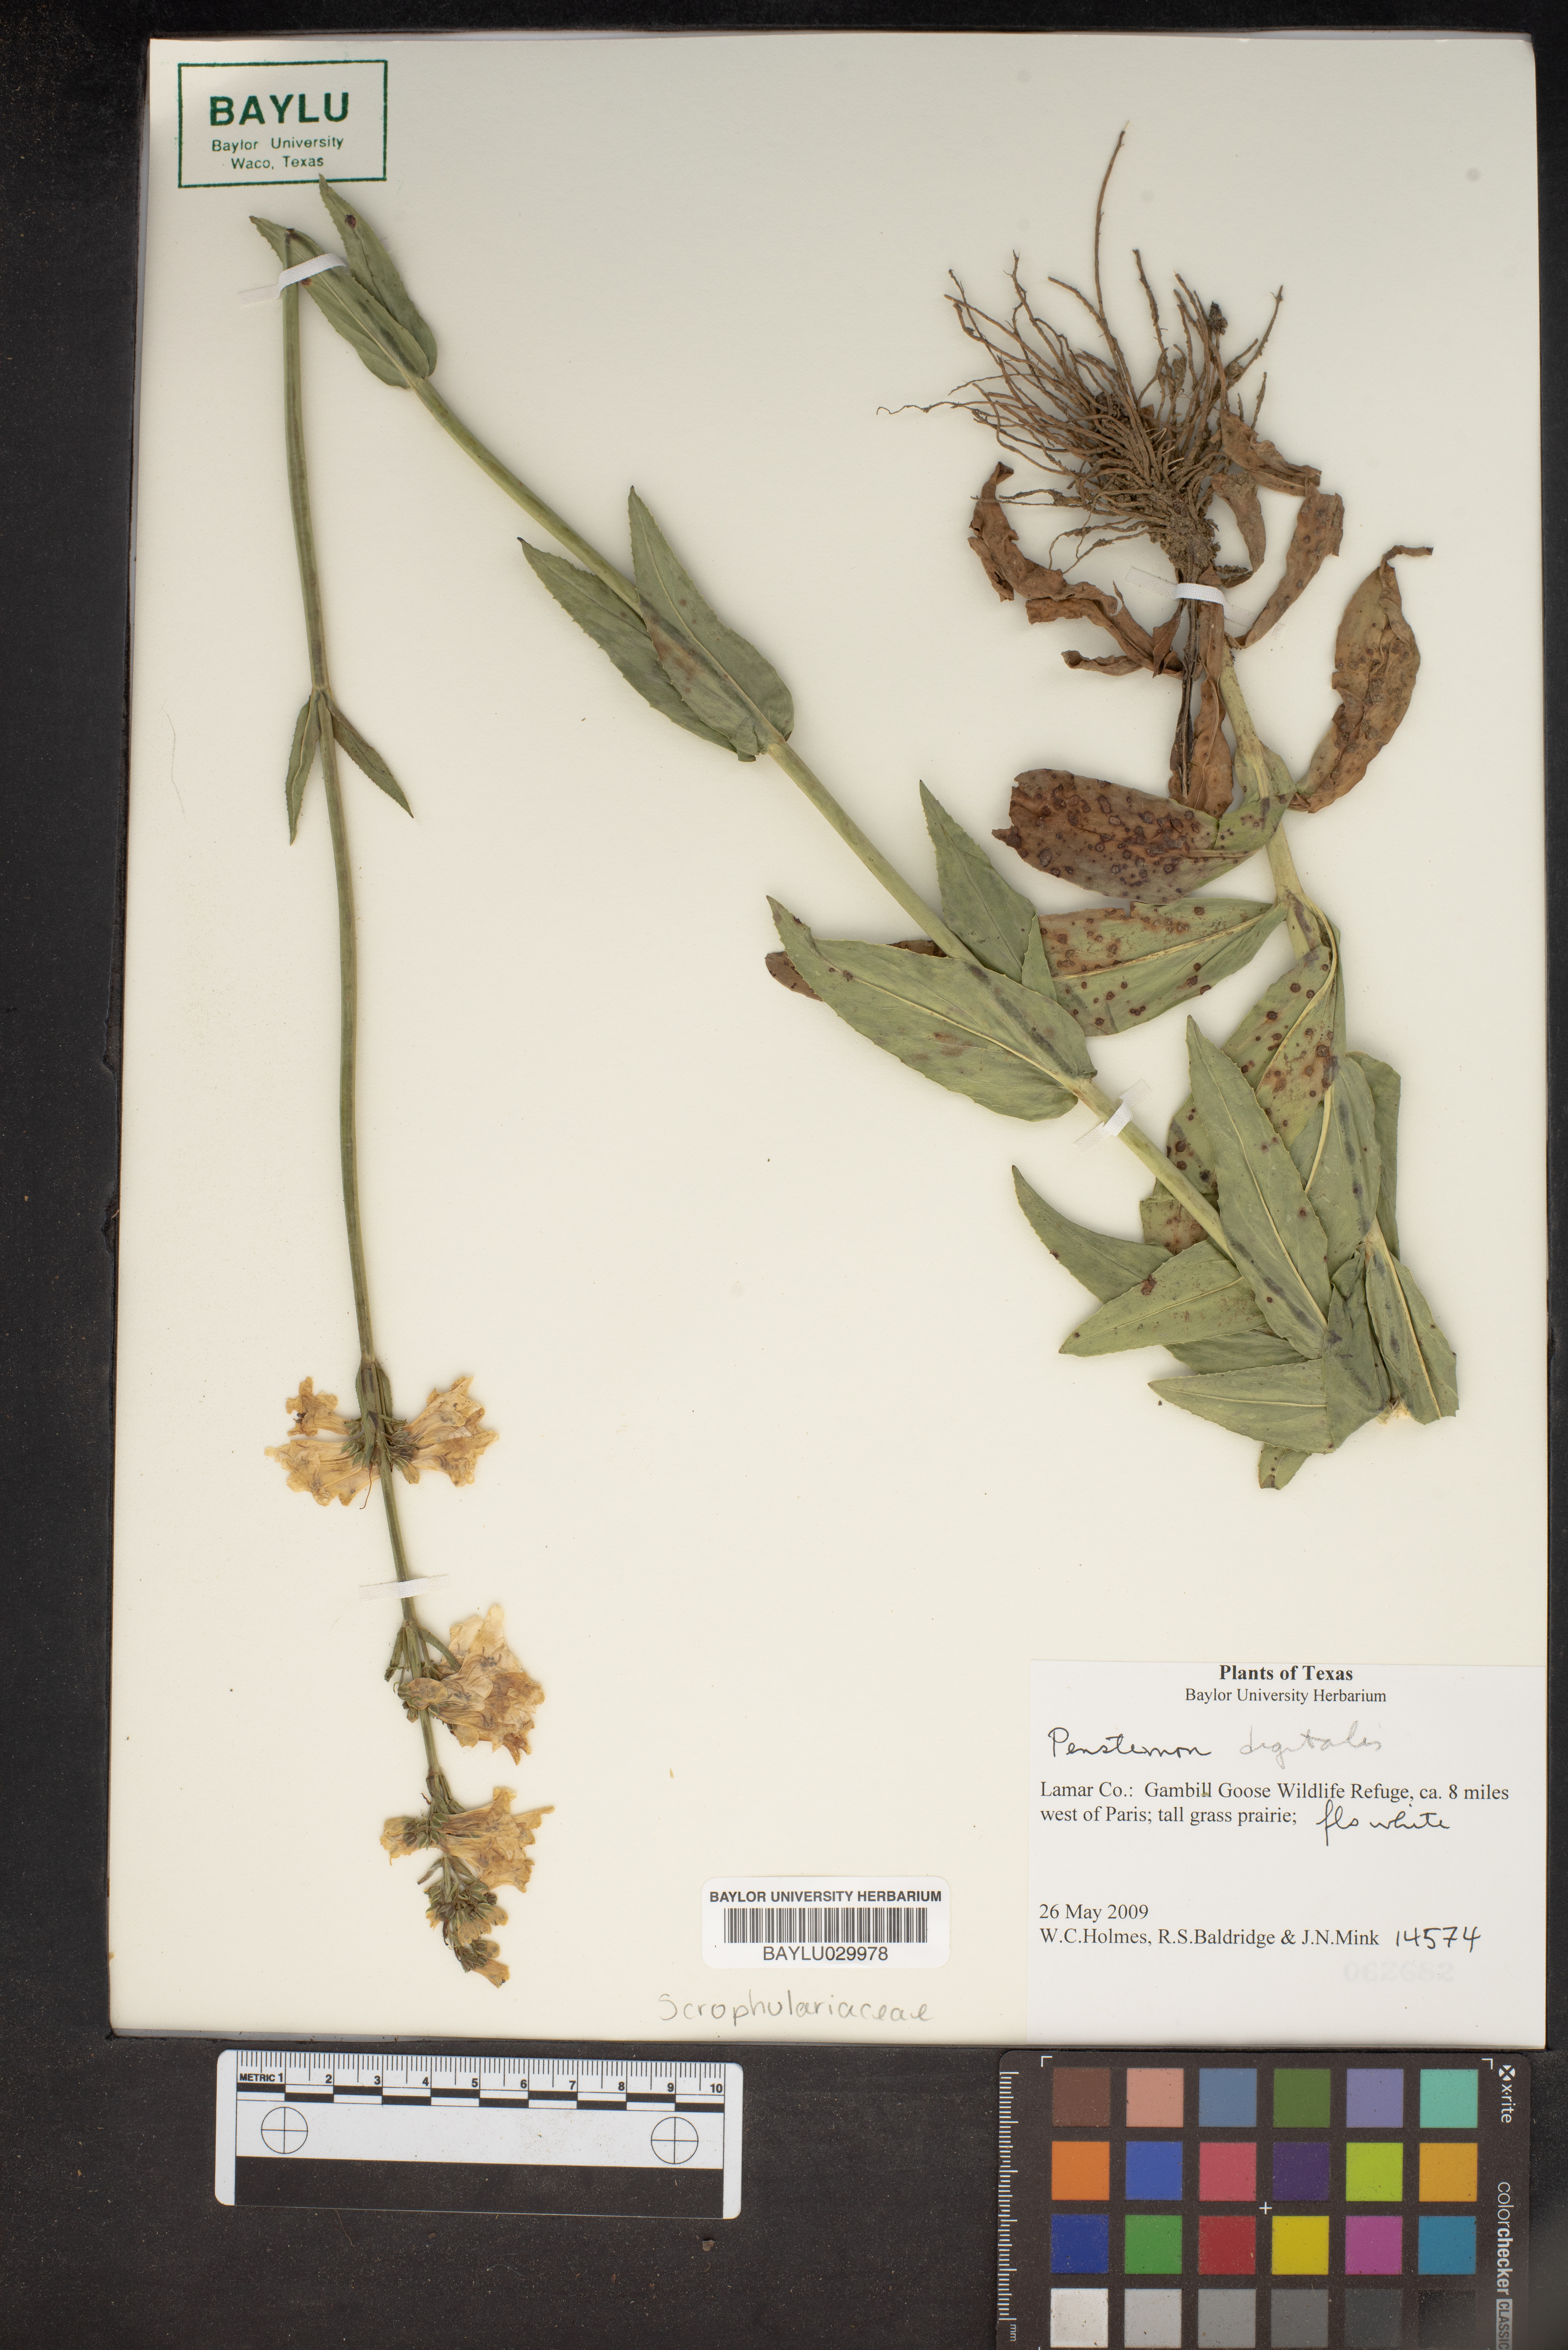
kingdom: Plantae
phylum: Tracheophyta
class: Magnoliopsida
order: Lamiales
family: Plantaginaceae
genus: Penstemon
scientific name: Penstemon digitalis
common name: Foxglove beardtongue
